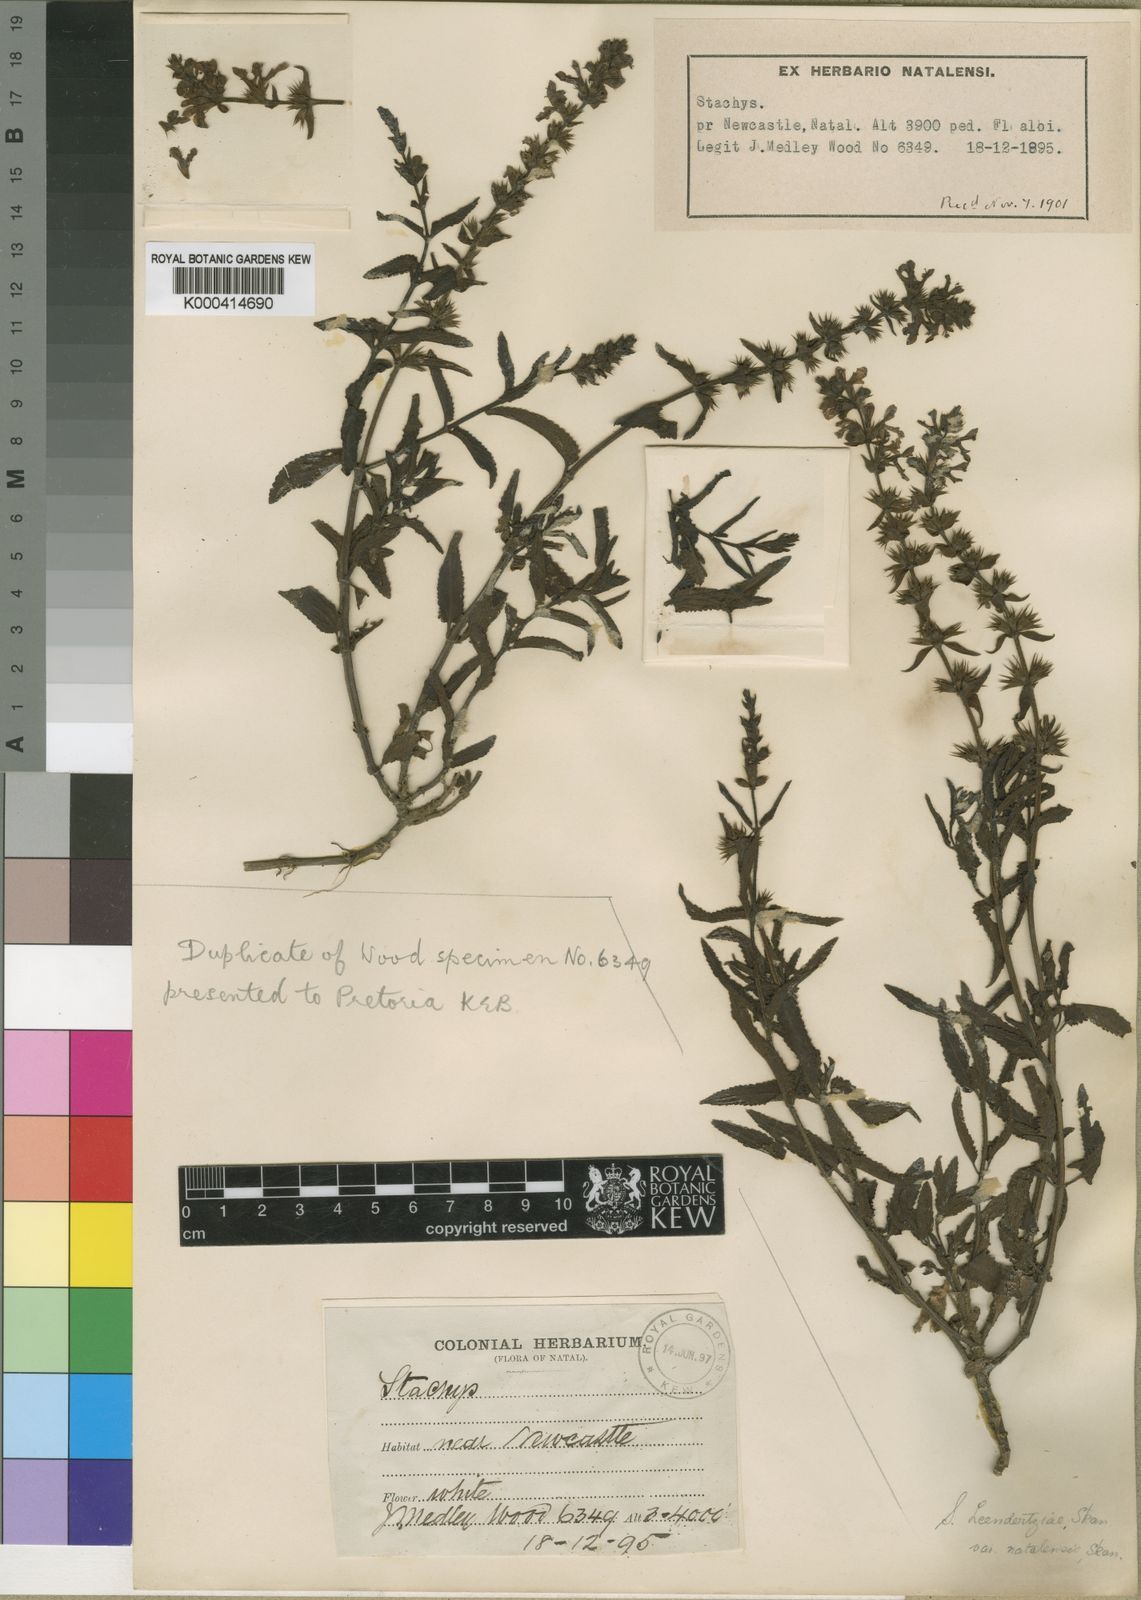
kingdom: Plantae
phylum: Tracheophyta
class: Magnoliopsida
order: Lamiales
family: Lamiaceae
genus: Stachys
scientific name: Stachys
